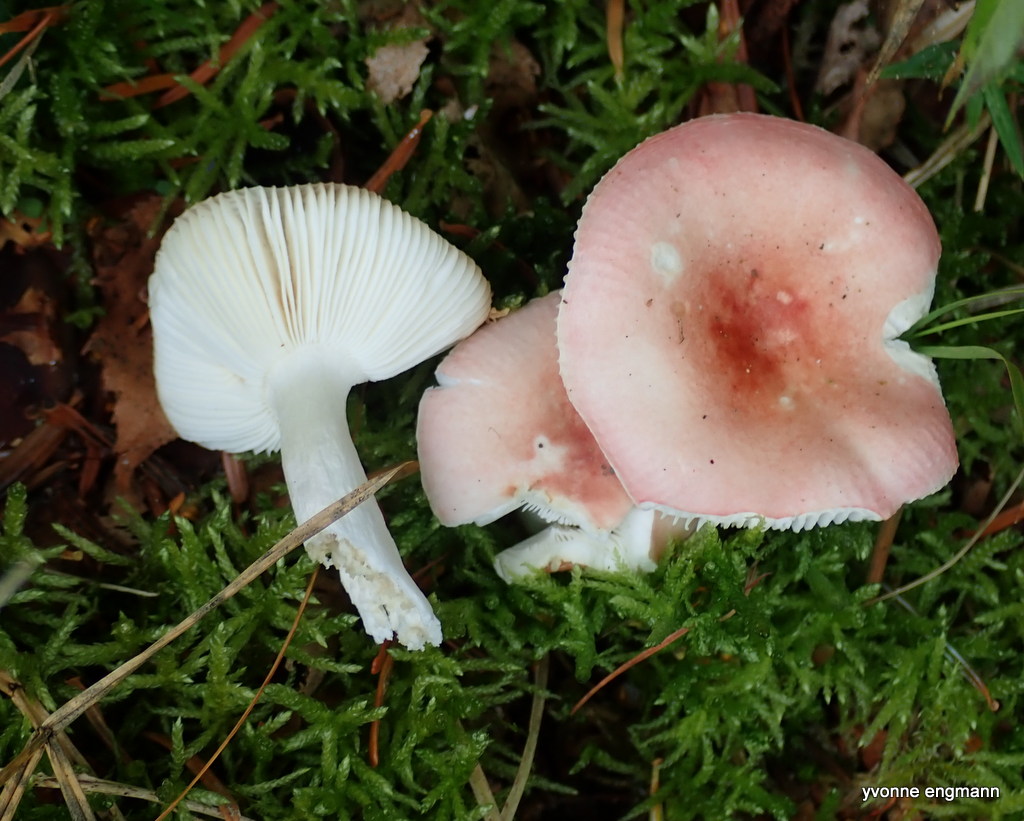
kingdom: Fungi
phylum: Basidiomycota
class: Agaricomycetes
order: Russulales
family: Russulaceae
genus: Russula
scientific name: Russula
